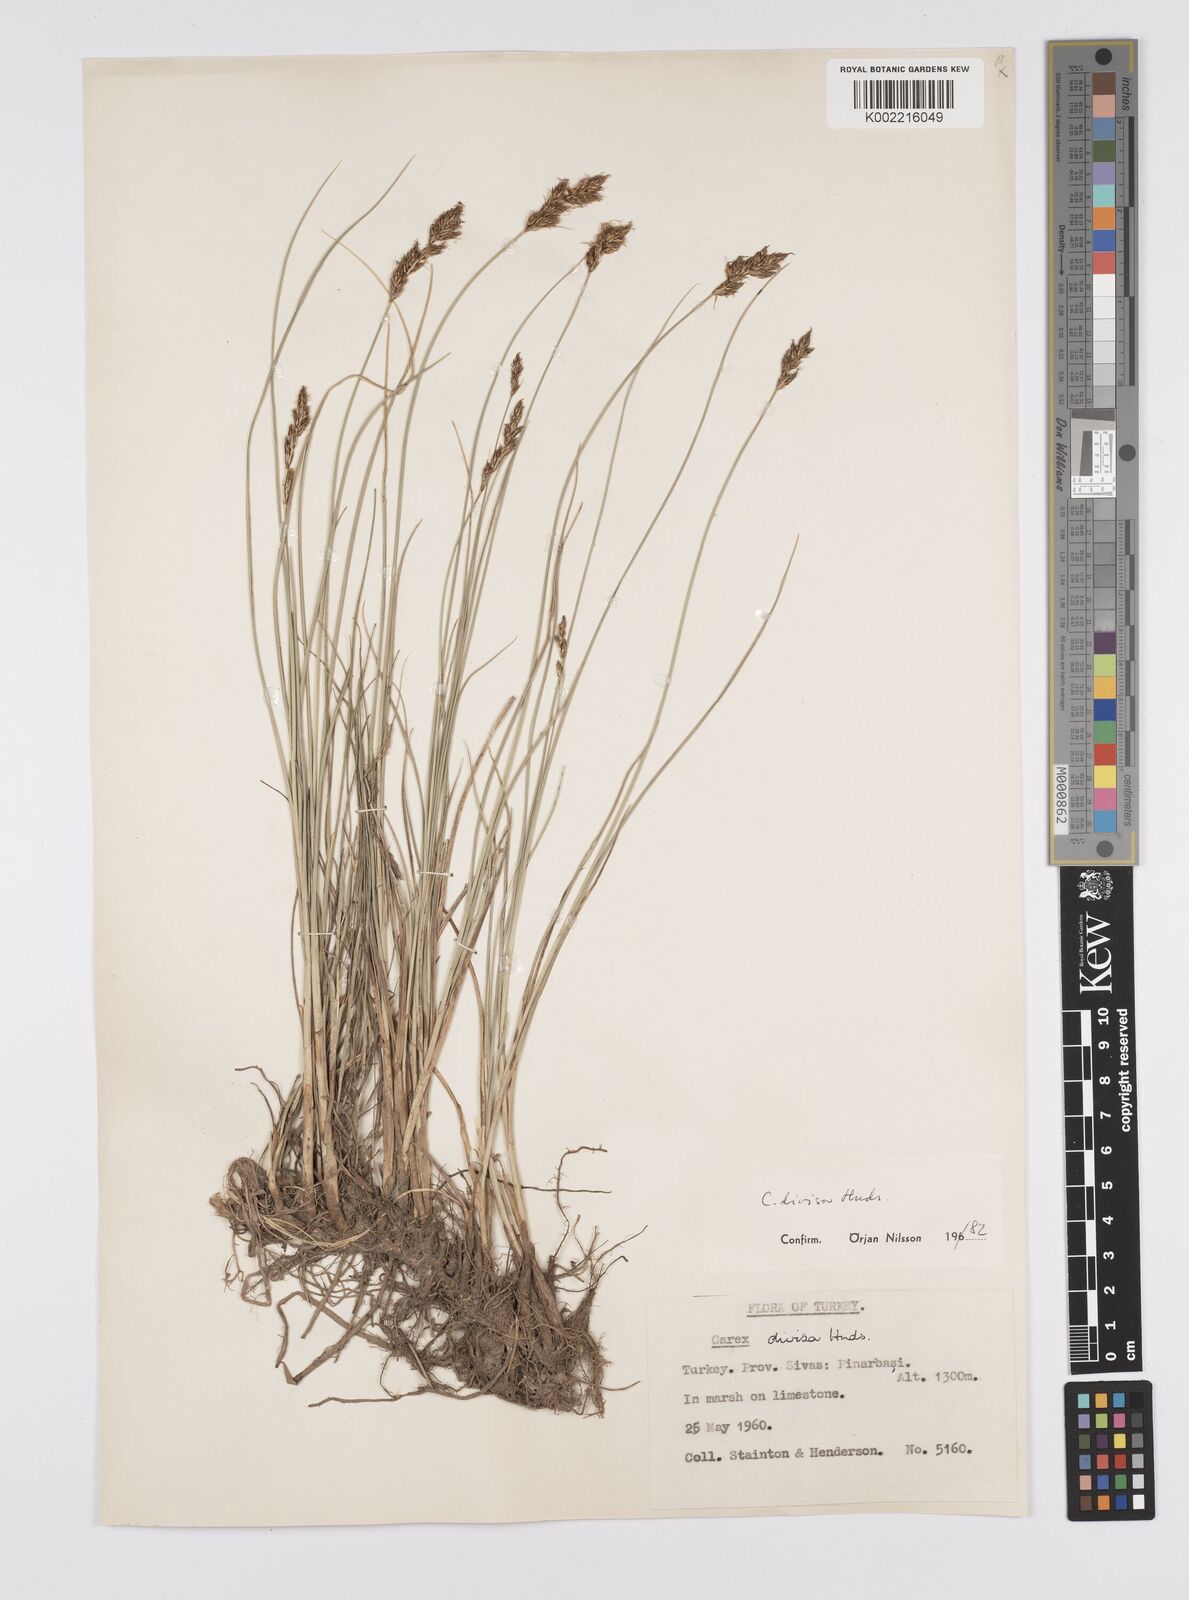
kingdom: Plantae
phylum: Tracheophyta
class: Liliopsida
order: Poales
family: Cyperaceae
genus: Carex
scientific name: Carex divisa
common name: Divided sedge
